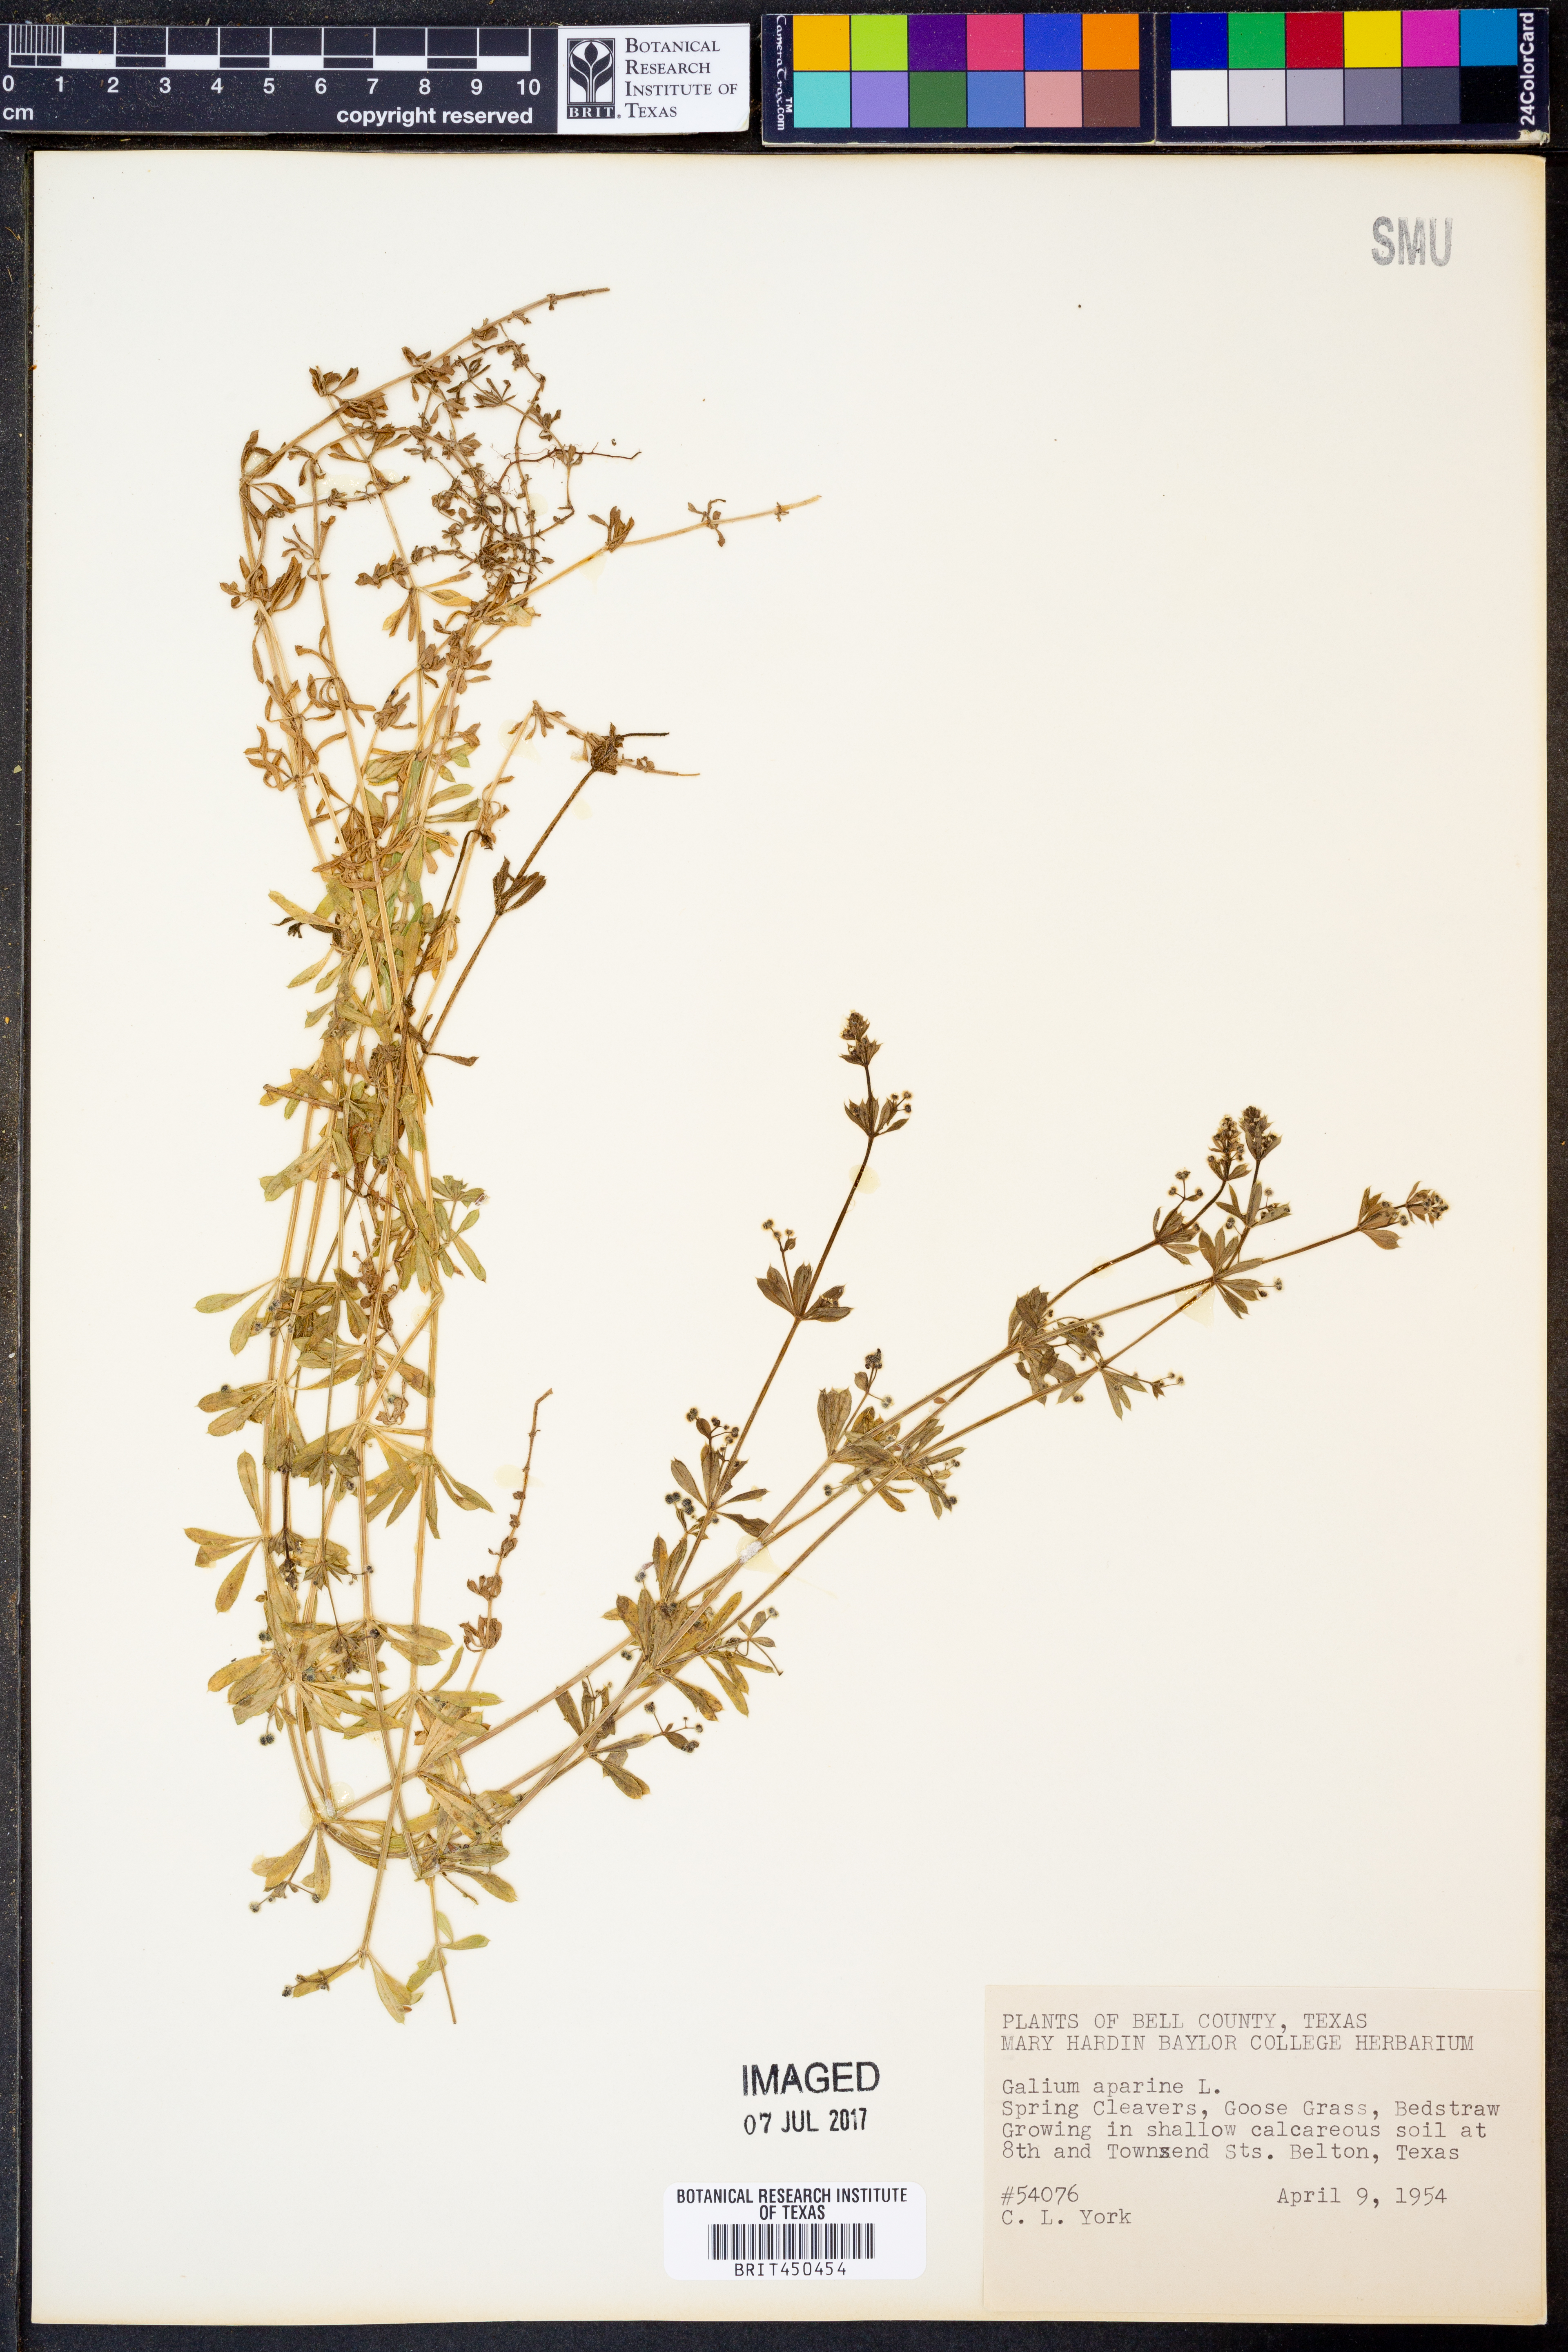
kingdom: Plantae
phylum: Tracheophyta
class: Magnoliopsida
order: Gentianales
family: Rubiaceae
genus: Galium
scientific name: Galium aparine
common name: Cleavers
